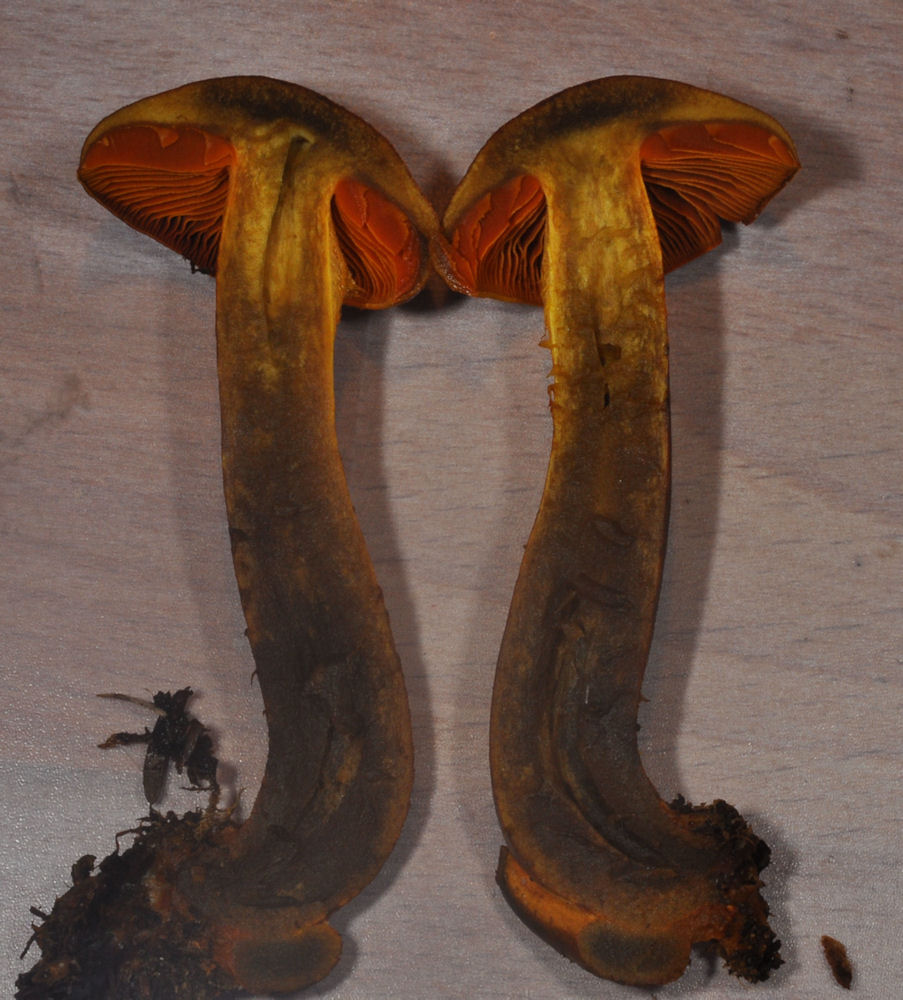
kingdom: Fungi
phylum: Basidiomycota
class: Agaricomycetes
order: Agaricales
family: Cortinariaceae
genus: Cortinarius
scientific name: Cortinarius malicorius
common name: grønkødet slørhat
